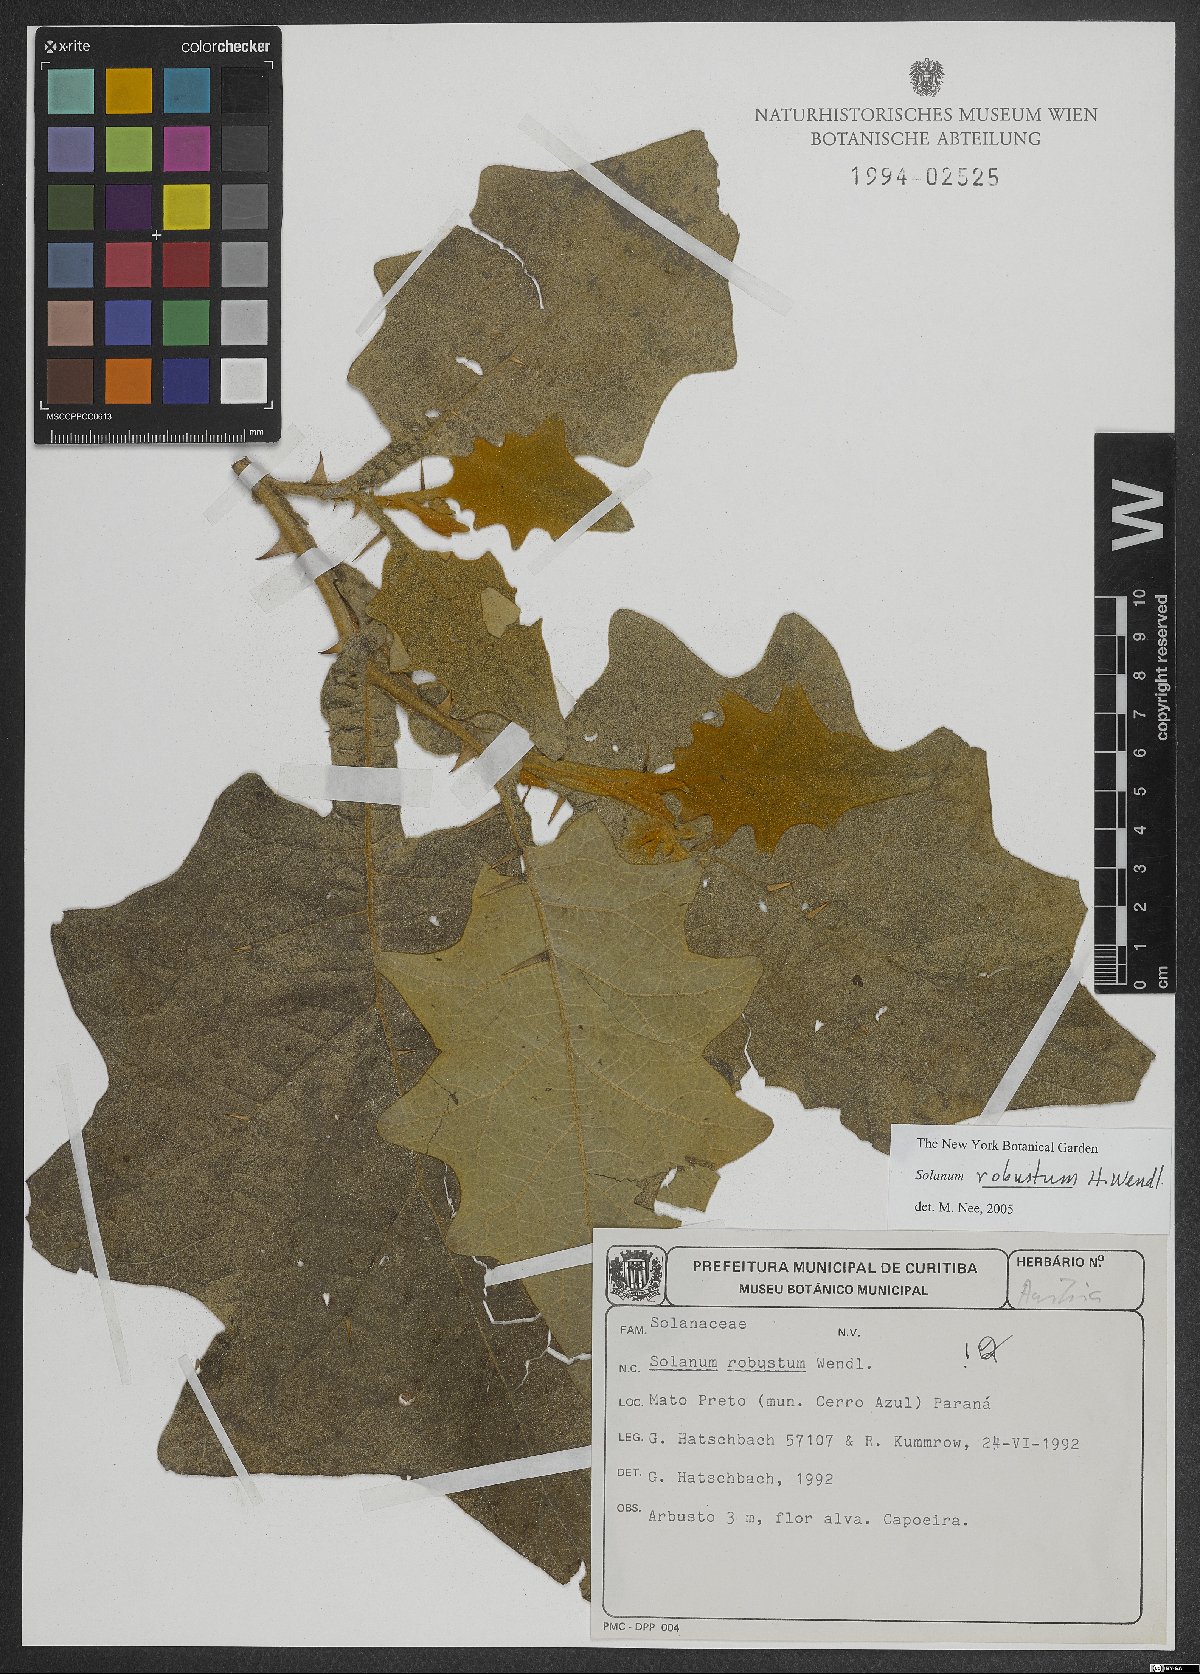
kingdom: Plantae
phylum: Tracheophyta
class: Magnoliopsida
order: Solanales
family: Solanaceae
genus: Solanum
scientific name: Solanum robustum
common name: Shrubby nightshade
